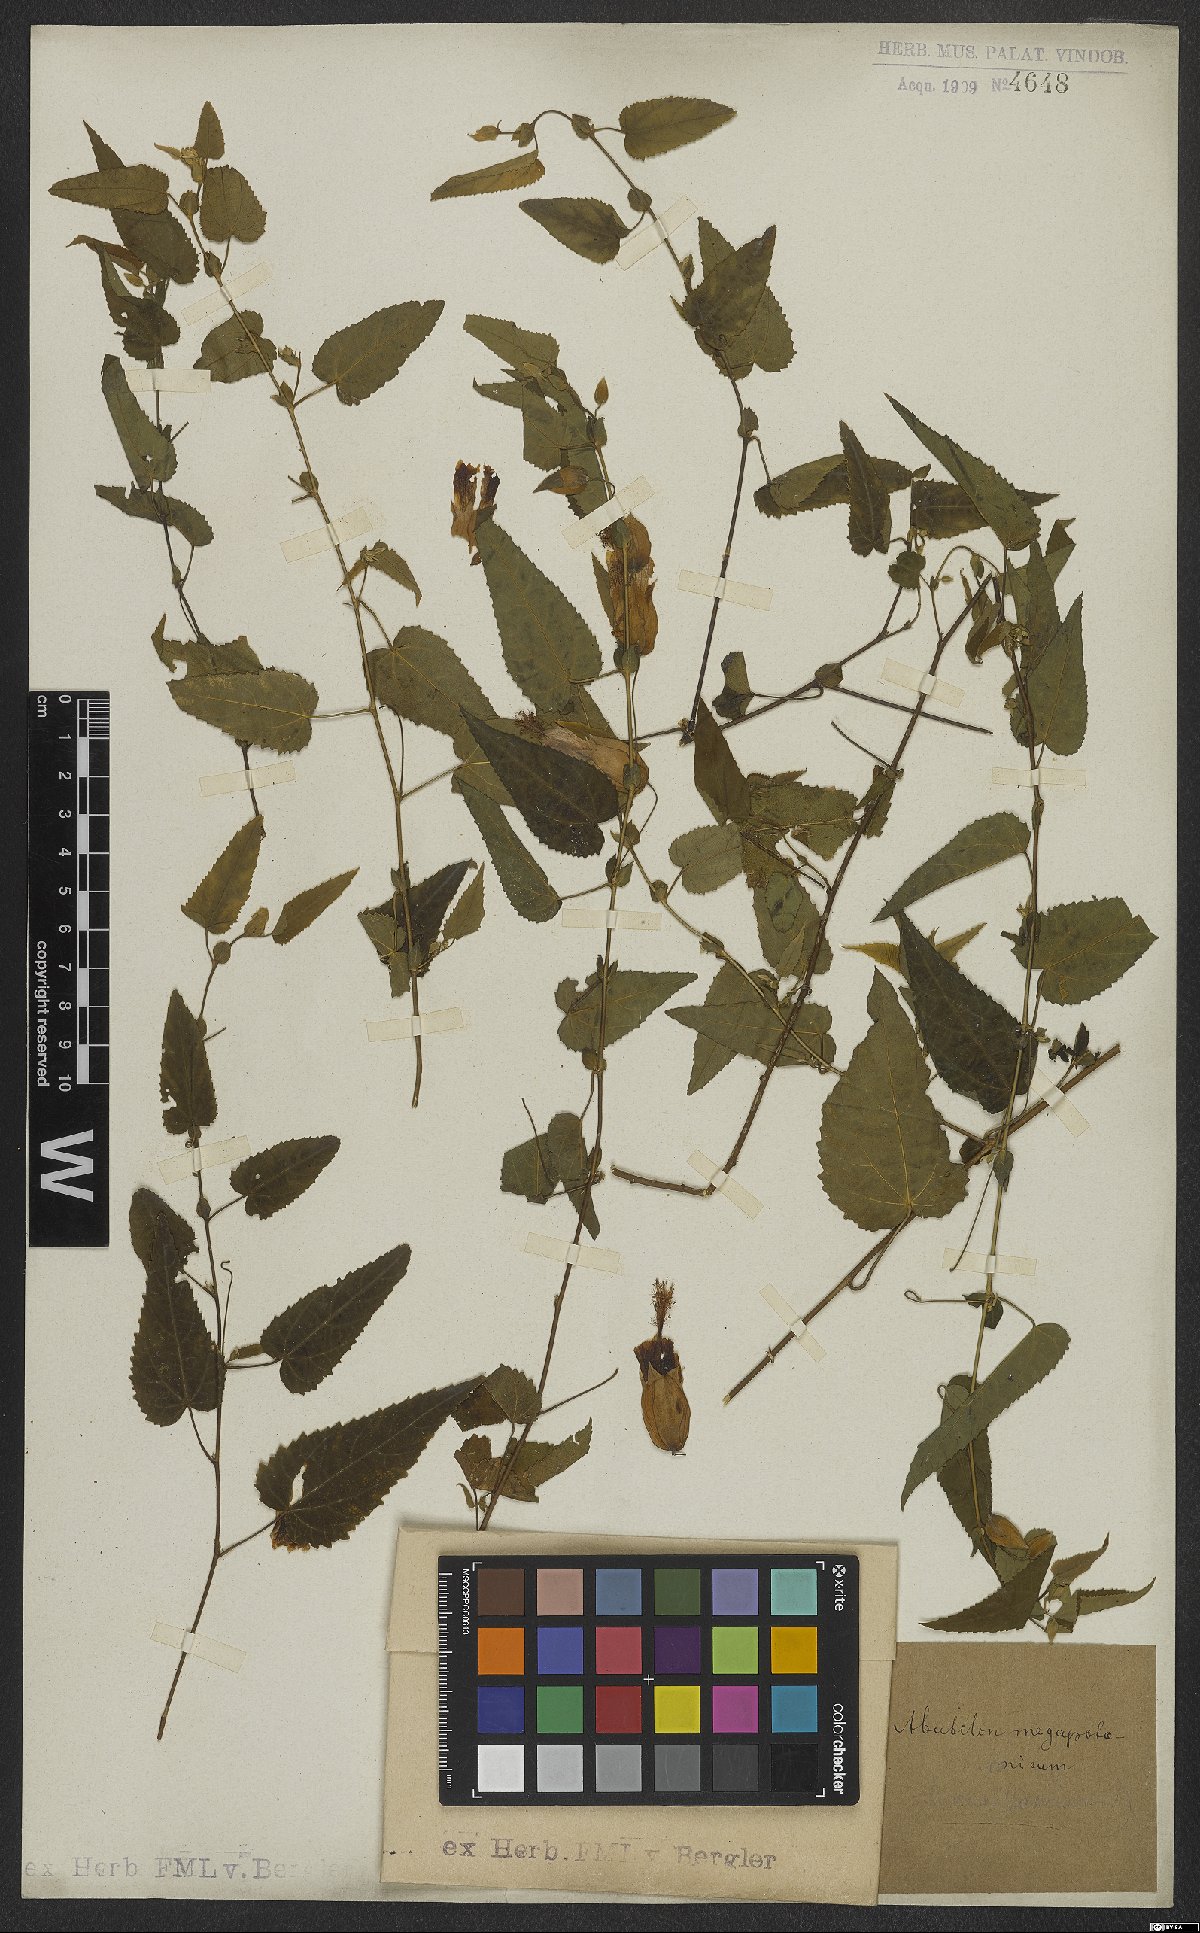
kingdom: Plantae
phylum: Tracheophyta
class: Magnoliopsida
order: Malvales
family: Malvaceae
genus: Callianthe
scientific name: Callianthe megapotamica
